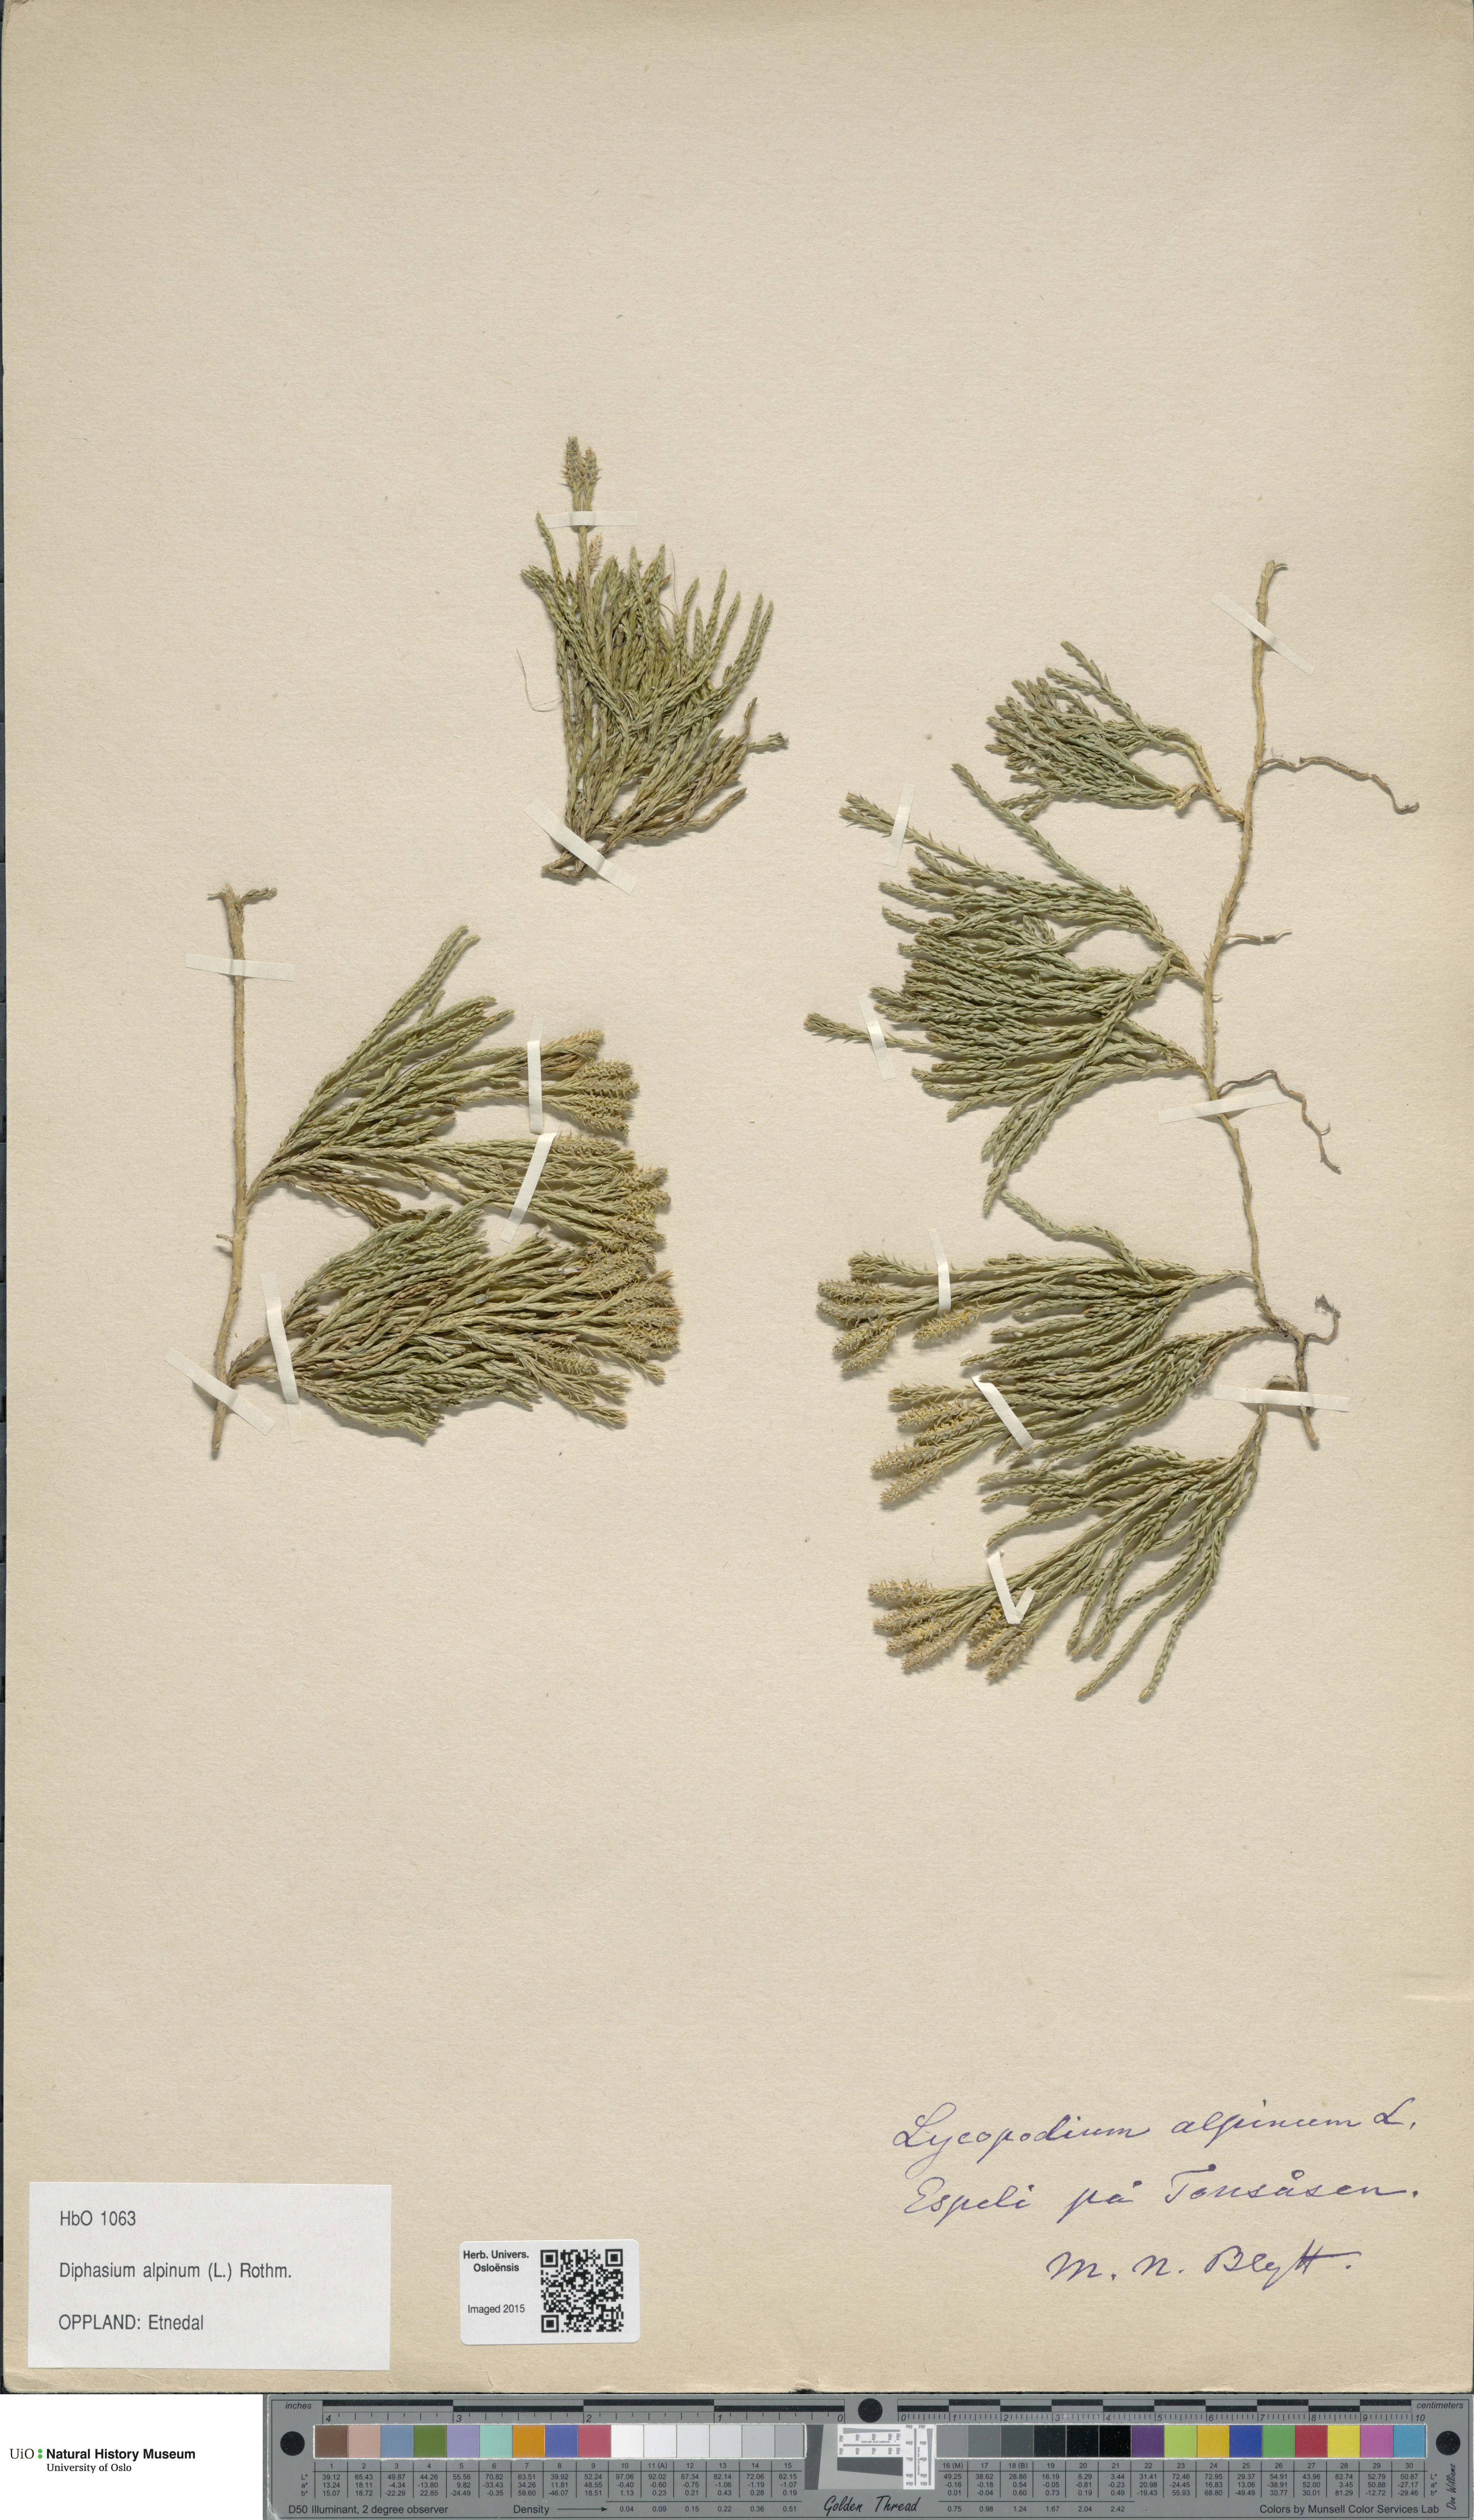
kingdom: Plantae
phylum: Tracheophyta
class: Lycopodiopsida
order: Lycopodiales
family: Lycopodiaceae
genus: Diphasiastrum
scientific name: Diphasiastrum alpinum
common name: Alpine clubmoss
